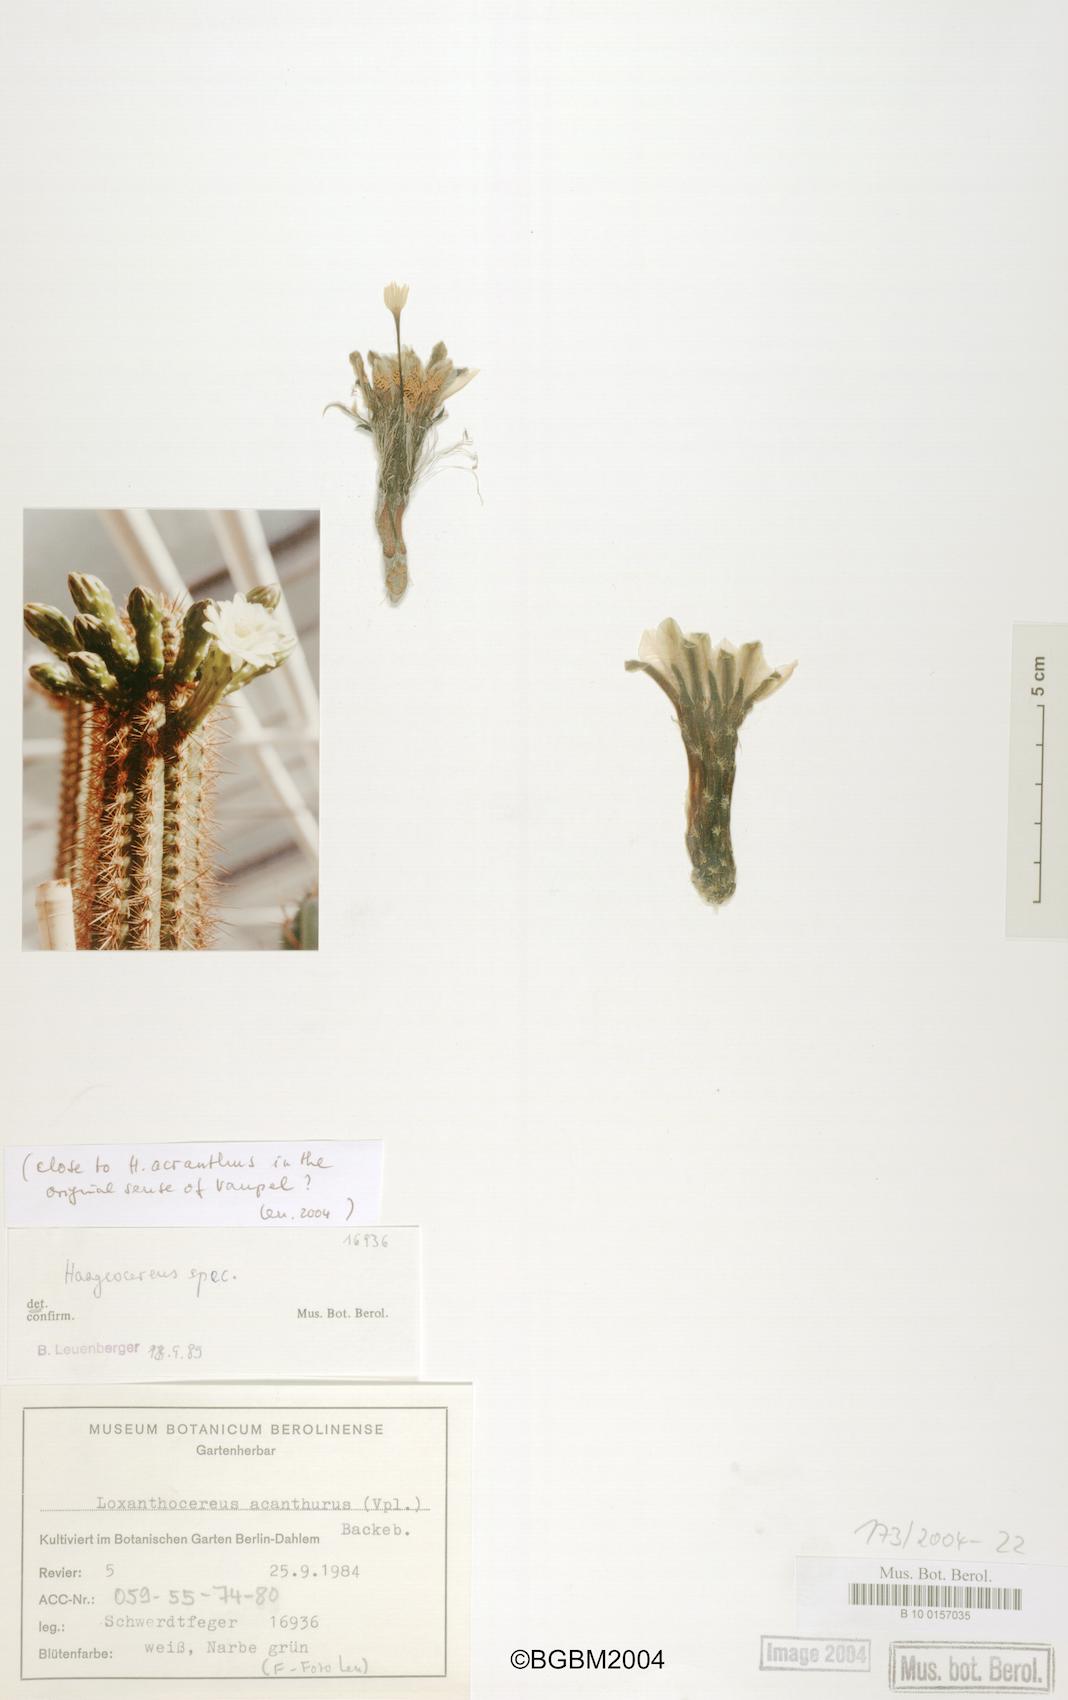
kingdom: Plantae
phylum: Tracheophyta
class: Magnoliopsida
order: Caryophyllales
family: Cactaceae
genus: Haageocereus
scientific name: Haageocereus
